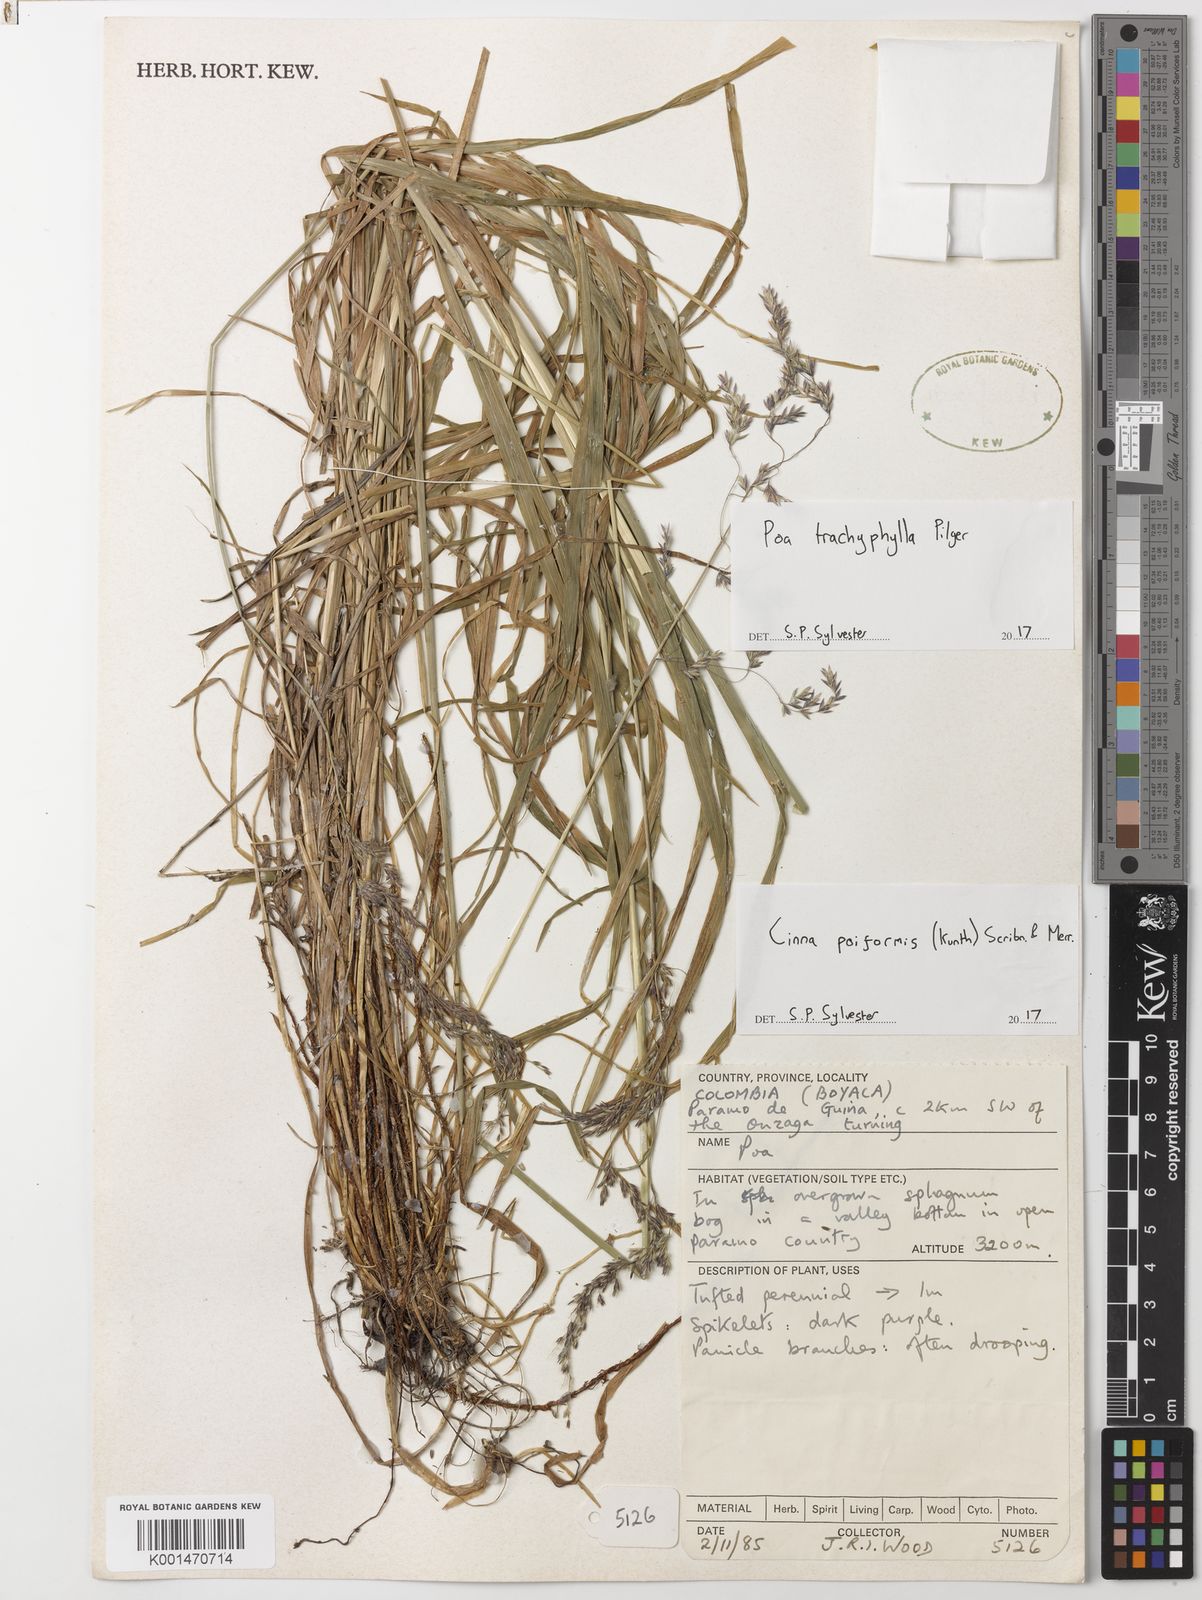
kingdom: Plantae
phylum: Tracheophyta
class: Liliopsida
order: Poales
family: Poaceae
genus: Cinnastrum
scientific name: Cinnastrum poiforme
